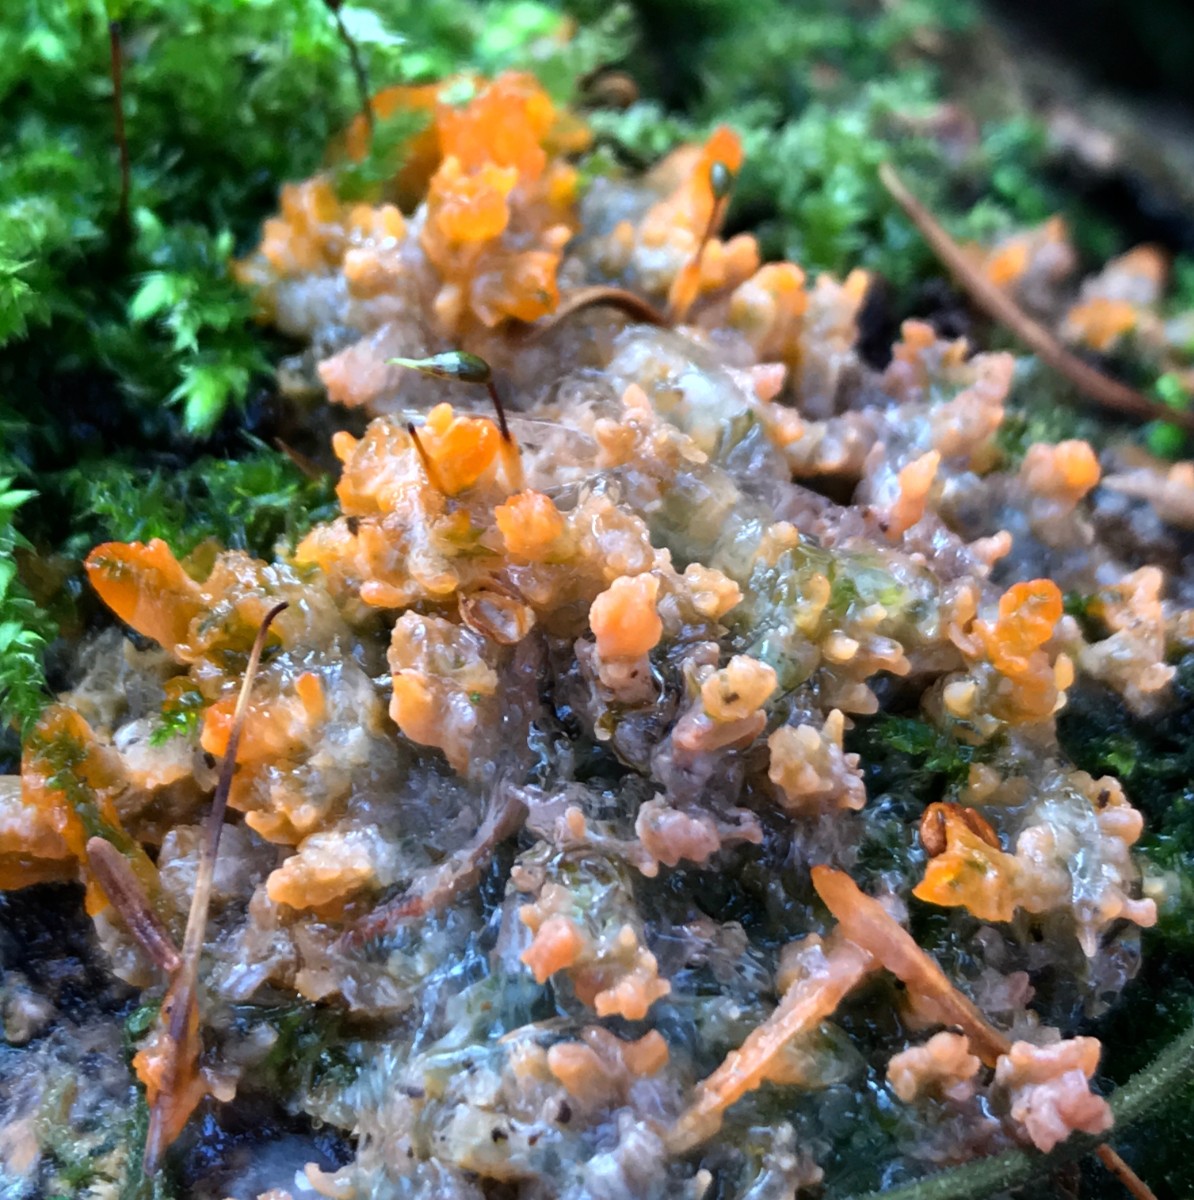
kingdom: Fungi
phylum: Basidiomycota
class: Agaricomycetes
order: Polyporales
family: Meruliaceae
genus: Phlebia
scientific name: Phlebia radiata
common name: stråle-åresvamp
